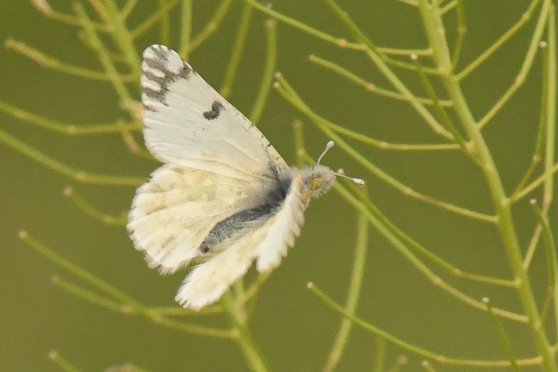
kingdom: Animalia
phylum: Arthropoda
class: Insecta
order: Lepidoptera
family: Pieridae
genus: Euchloe
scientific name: Euchloe ausonides
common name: Large Marble
